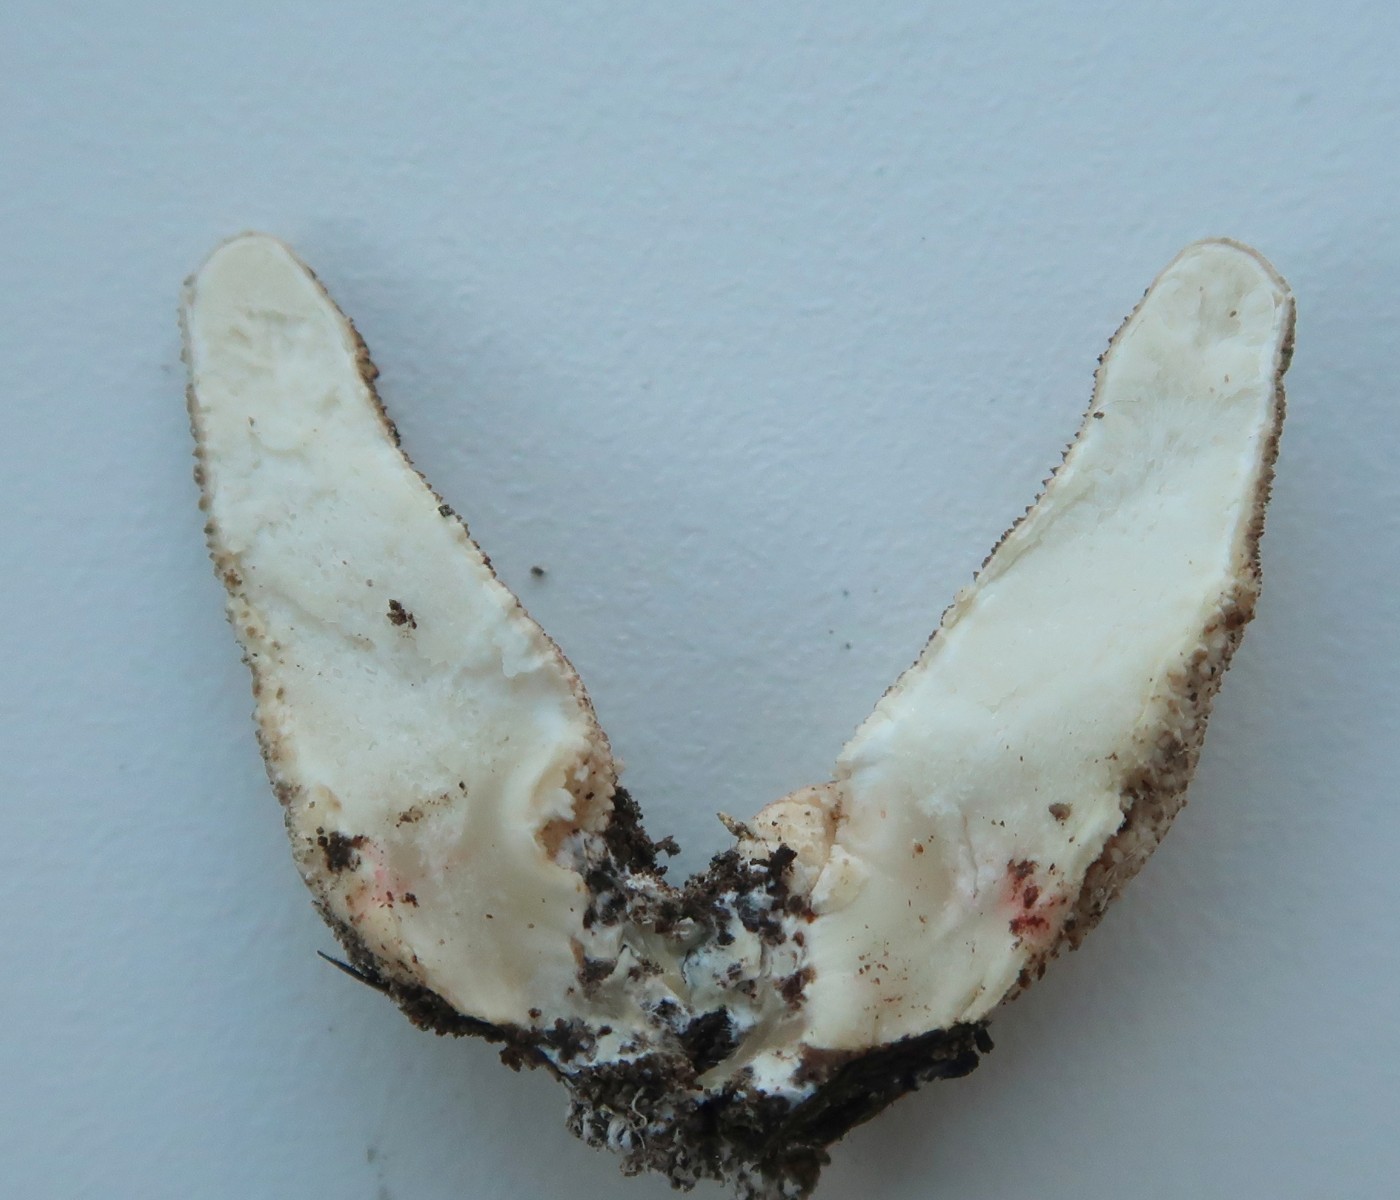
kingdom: Fungi
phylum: Basidiomycota
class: Agaricomycetes
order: Agaricales
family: Lycoperdaceae
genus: Apioperdon
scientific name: Apioperdon pyriforme
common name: pære-støvbold
